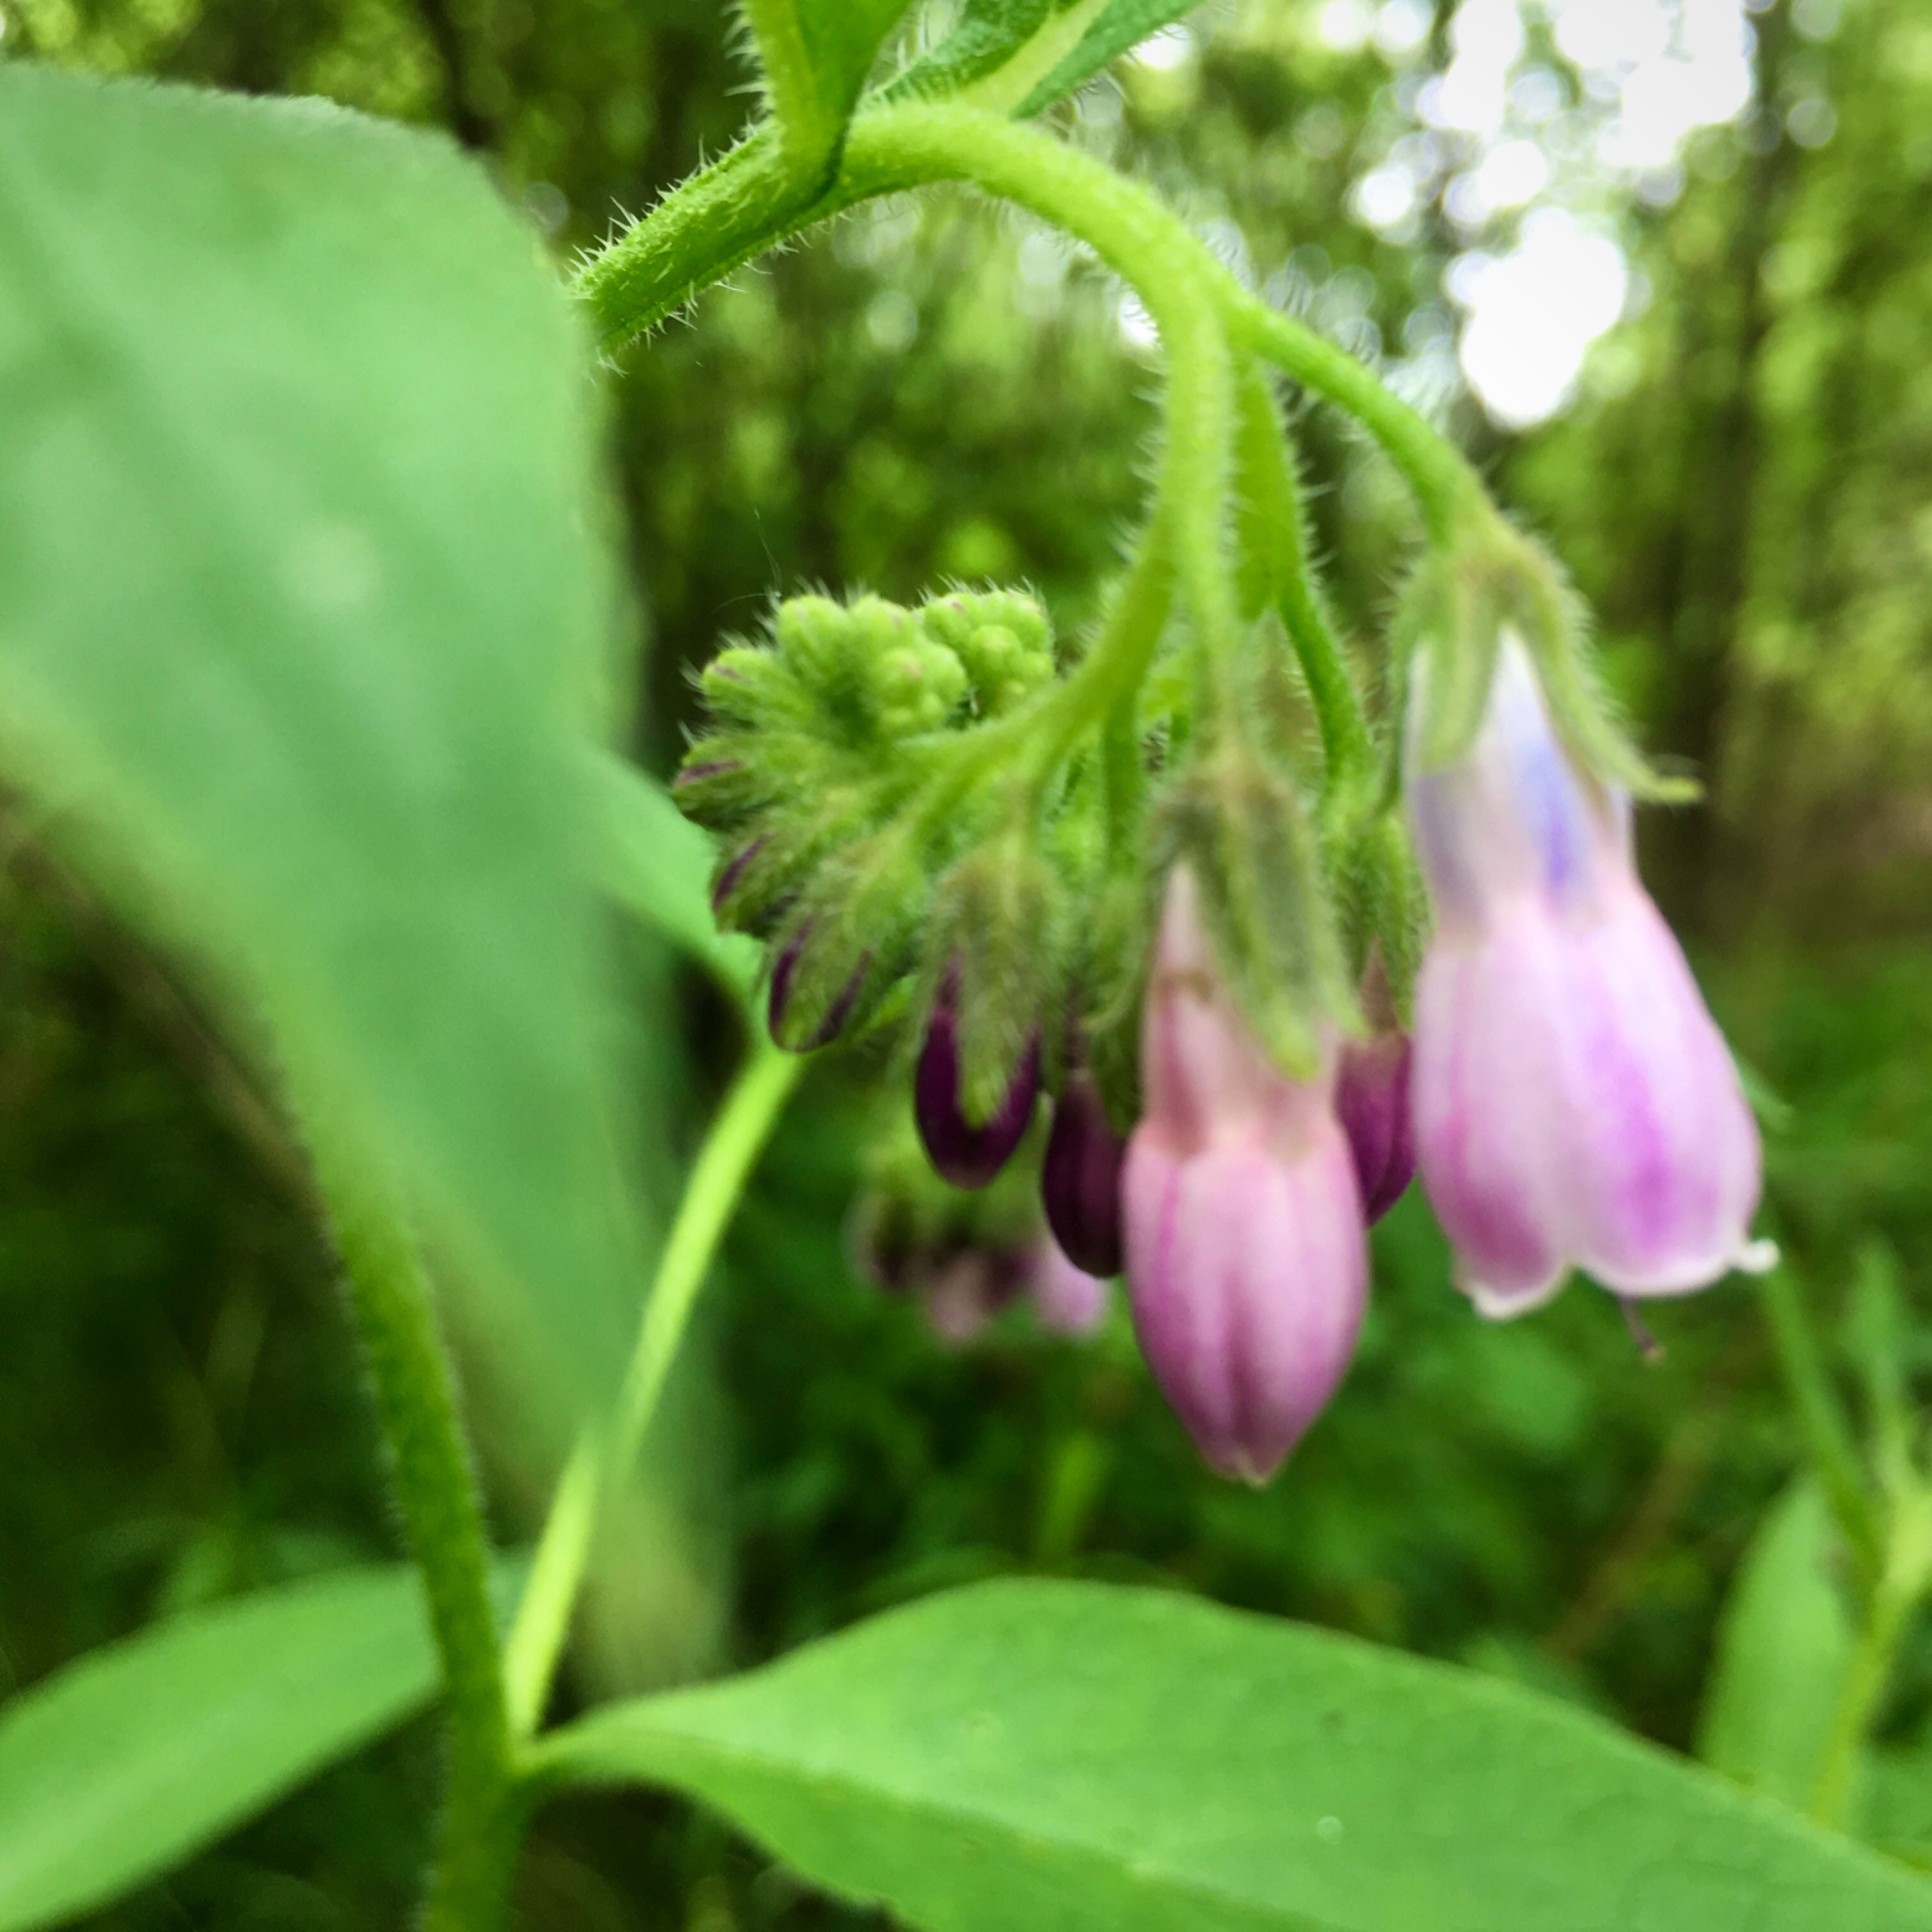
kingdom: Plantae
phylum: Tracheophyta
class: Magnoliopsida
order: Boraginales
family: Boraginaceae
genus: Symphytum
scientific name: Symphytum uplandicum
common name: Foder-kulsukker
